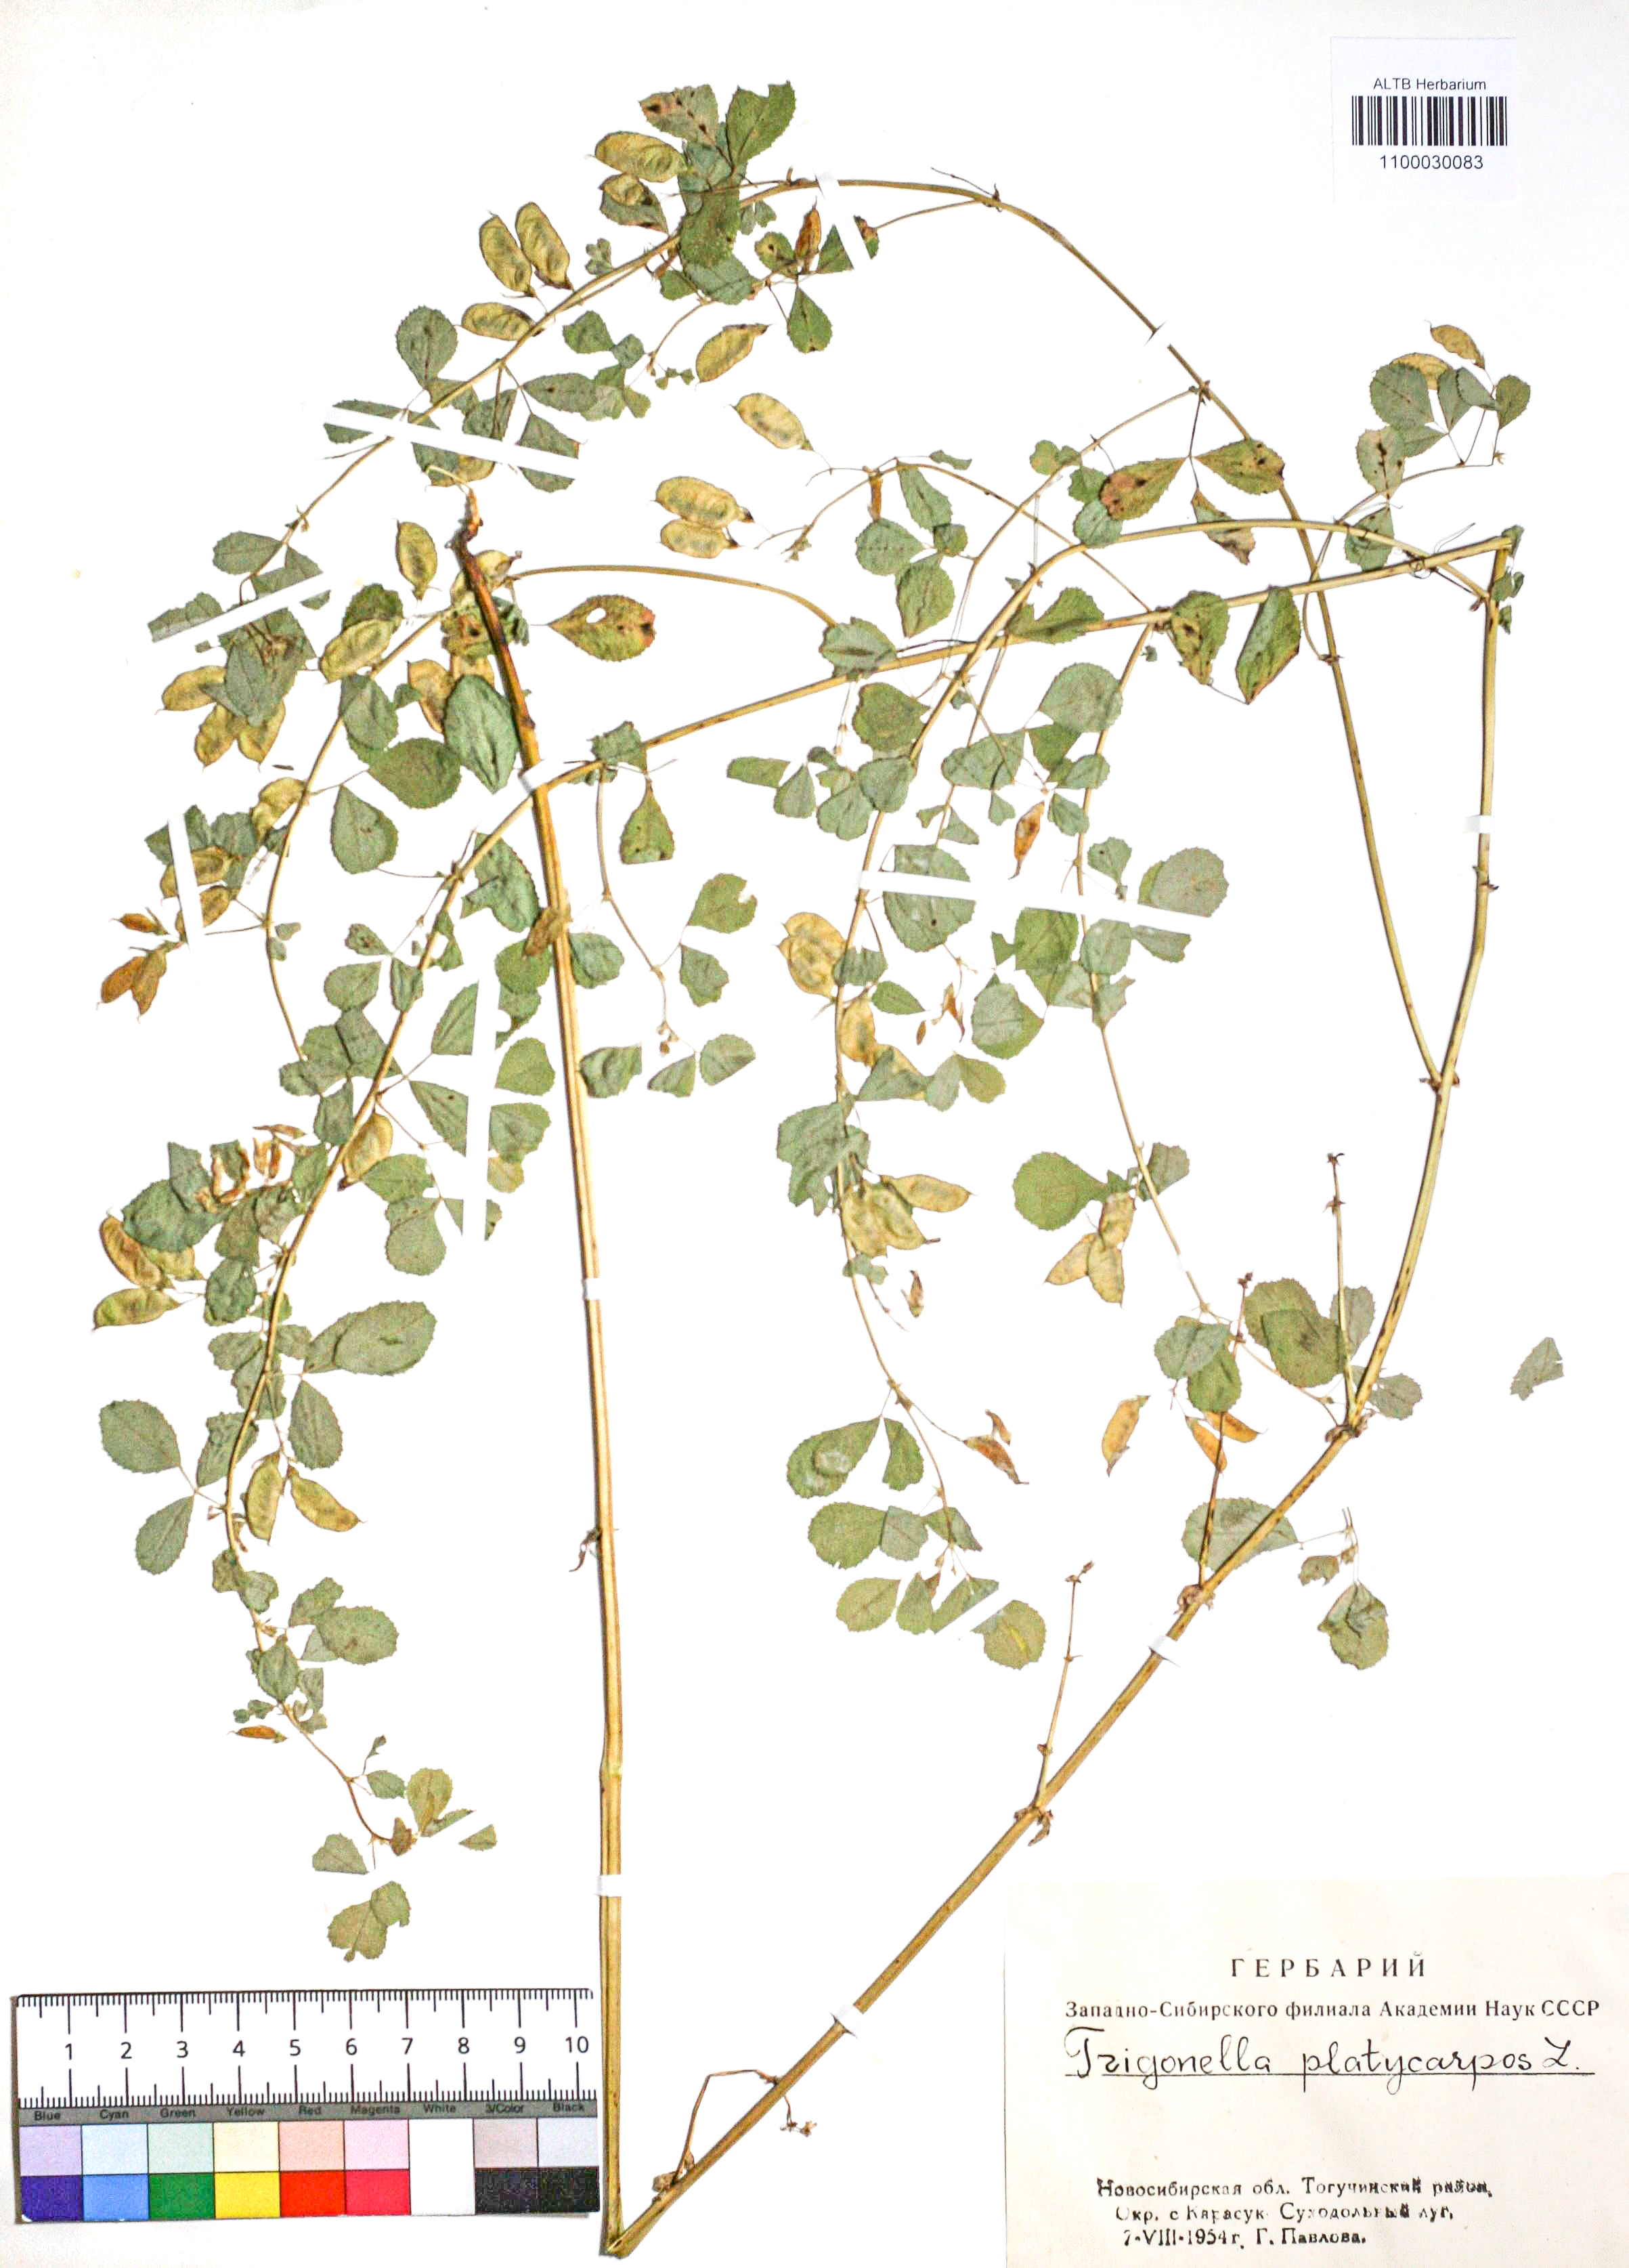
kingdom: Plantae
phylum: Tracheophyta
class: Magnoliopsida
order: Fabales
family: Fabaceae
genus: Medicago
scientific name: Medicago platycarpos
